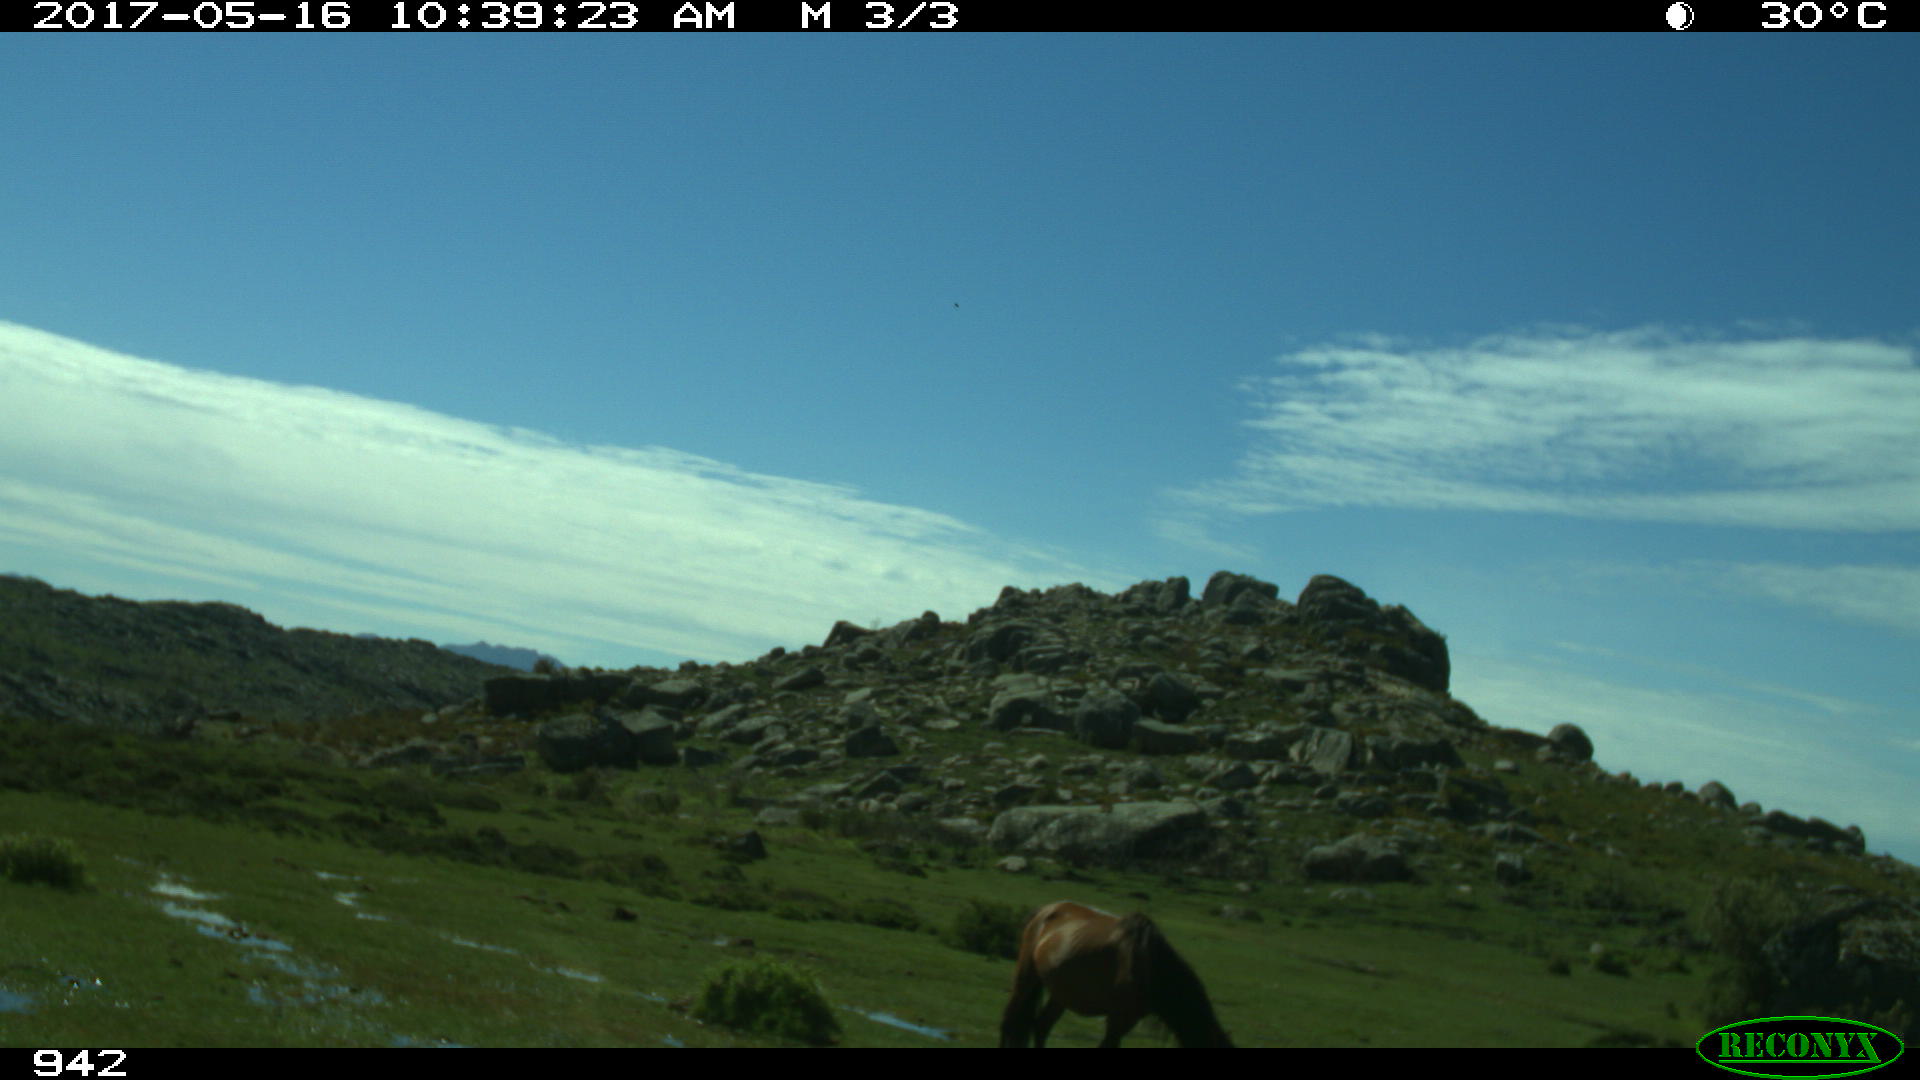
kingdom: Animalia
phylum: Chordata
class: Mammalia
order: Perissodactyla
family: Equidae
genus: Equus
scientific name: Equus caballus
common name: Horse
